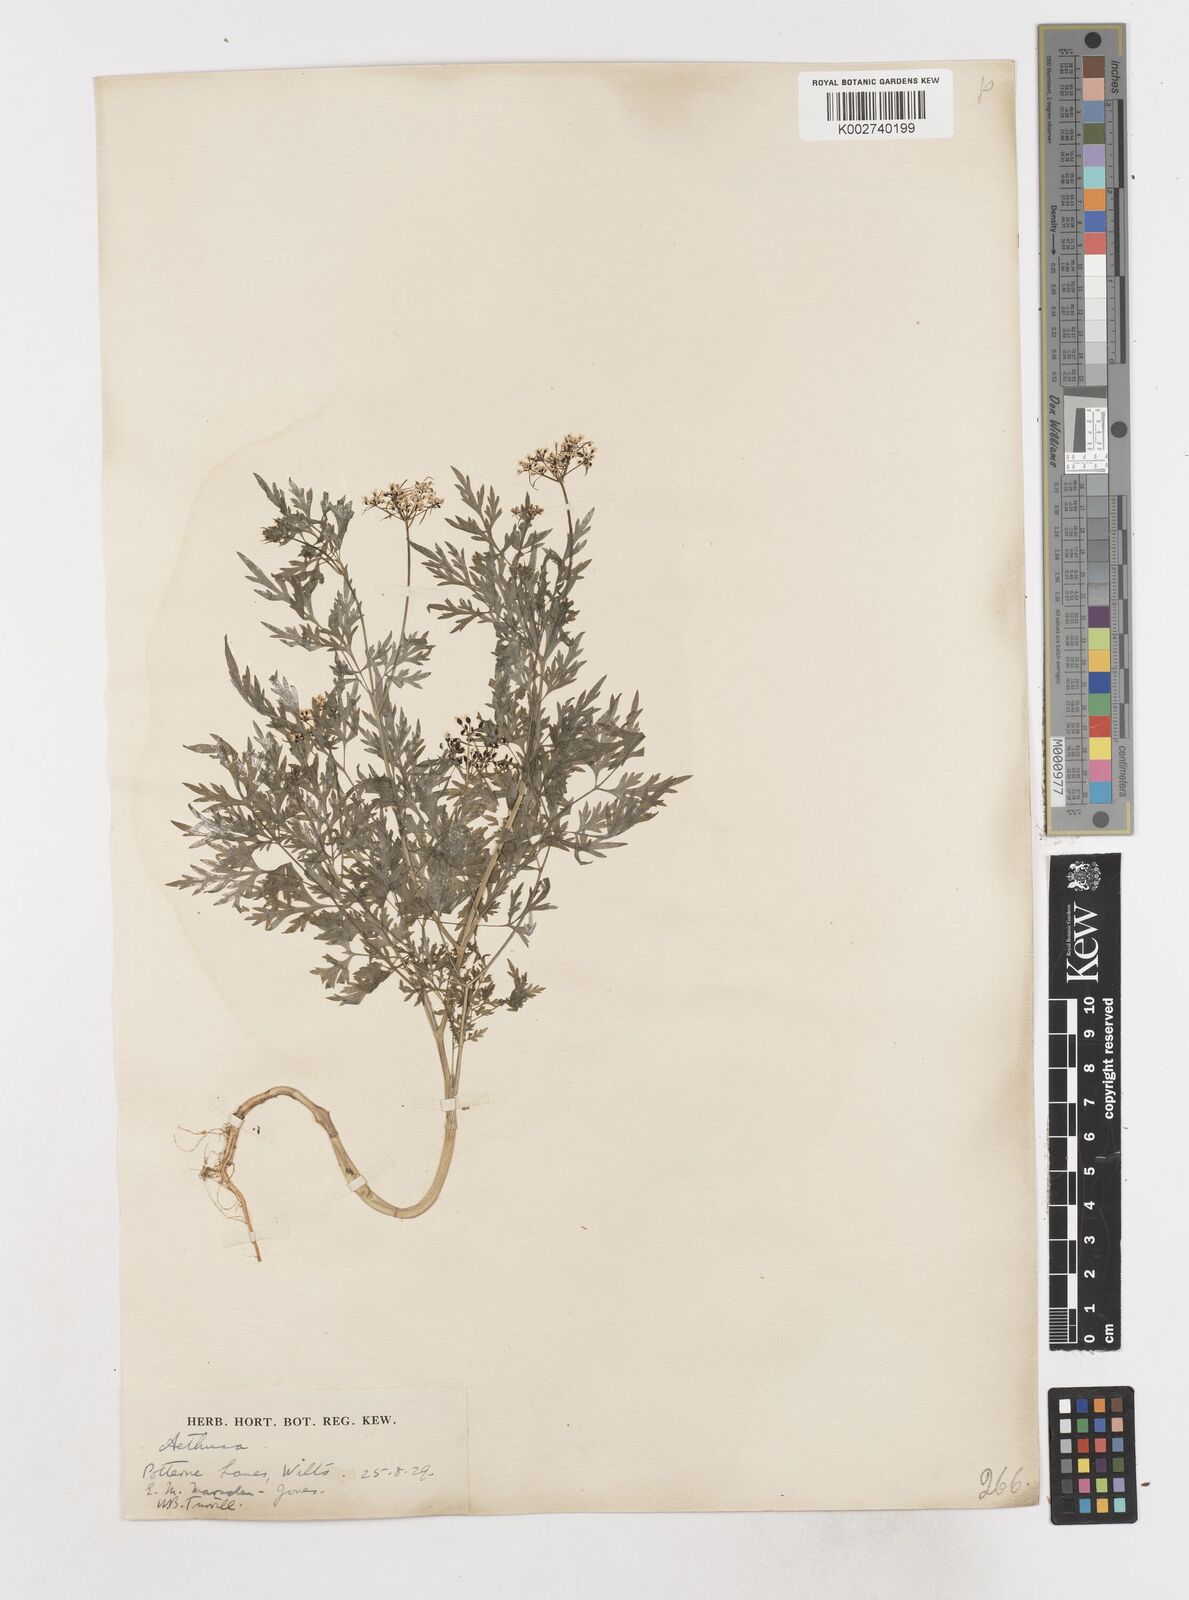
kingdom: Plantae
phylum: Tracheophyta
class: Magnoliopsida
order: Apiales
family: Apiaceae
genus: Aethusa
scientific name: Aethusa cynapium
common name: Fool's parsley
